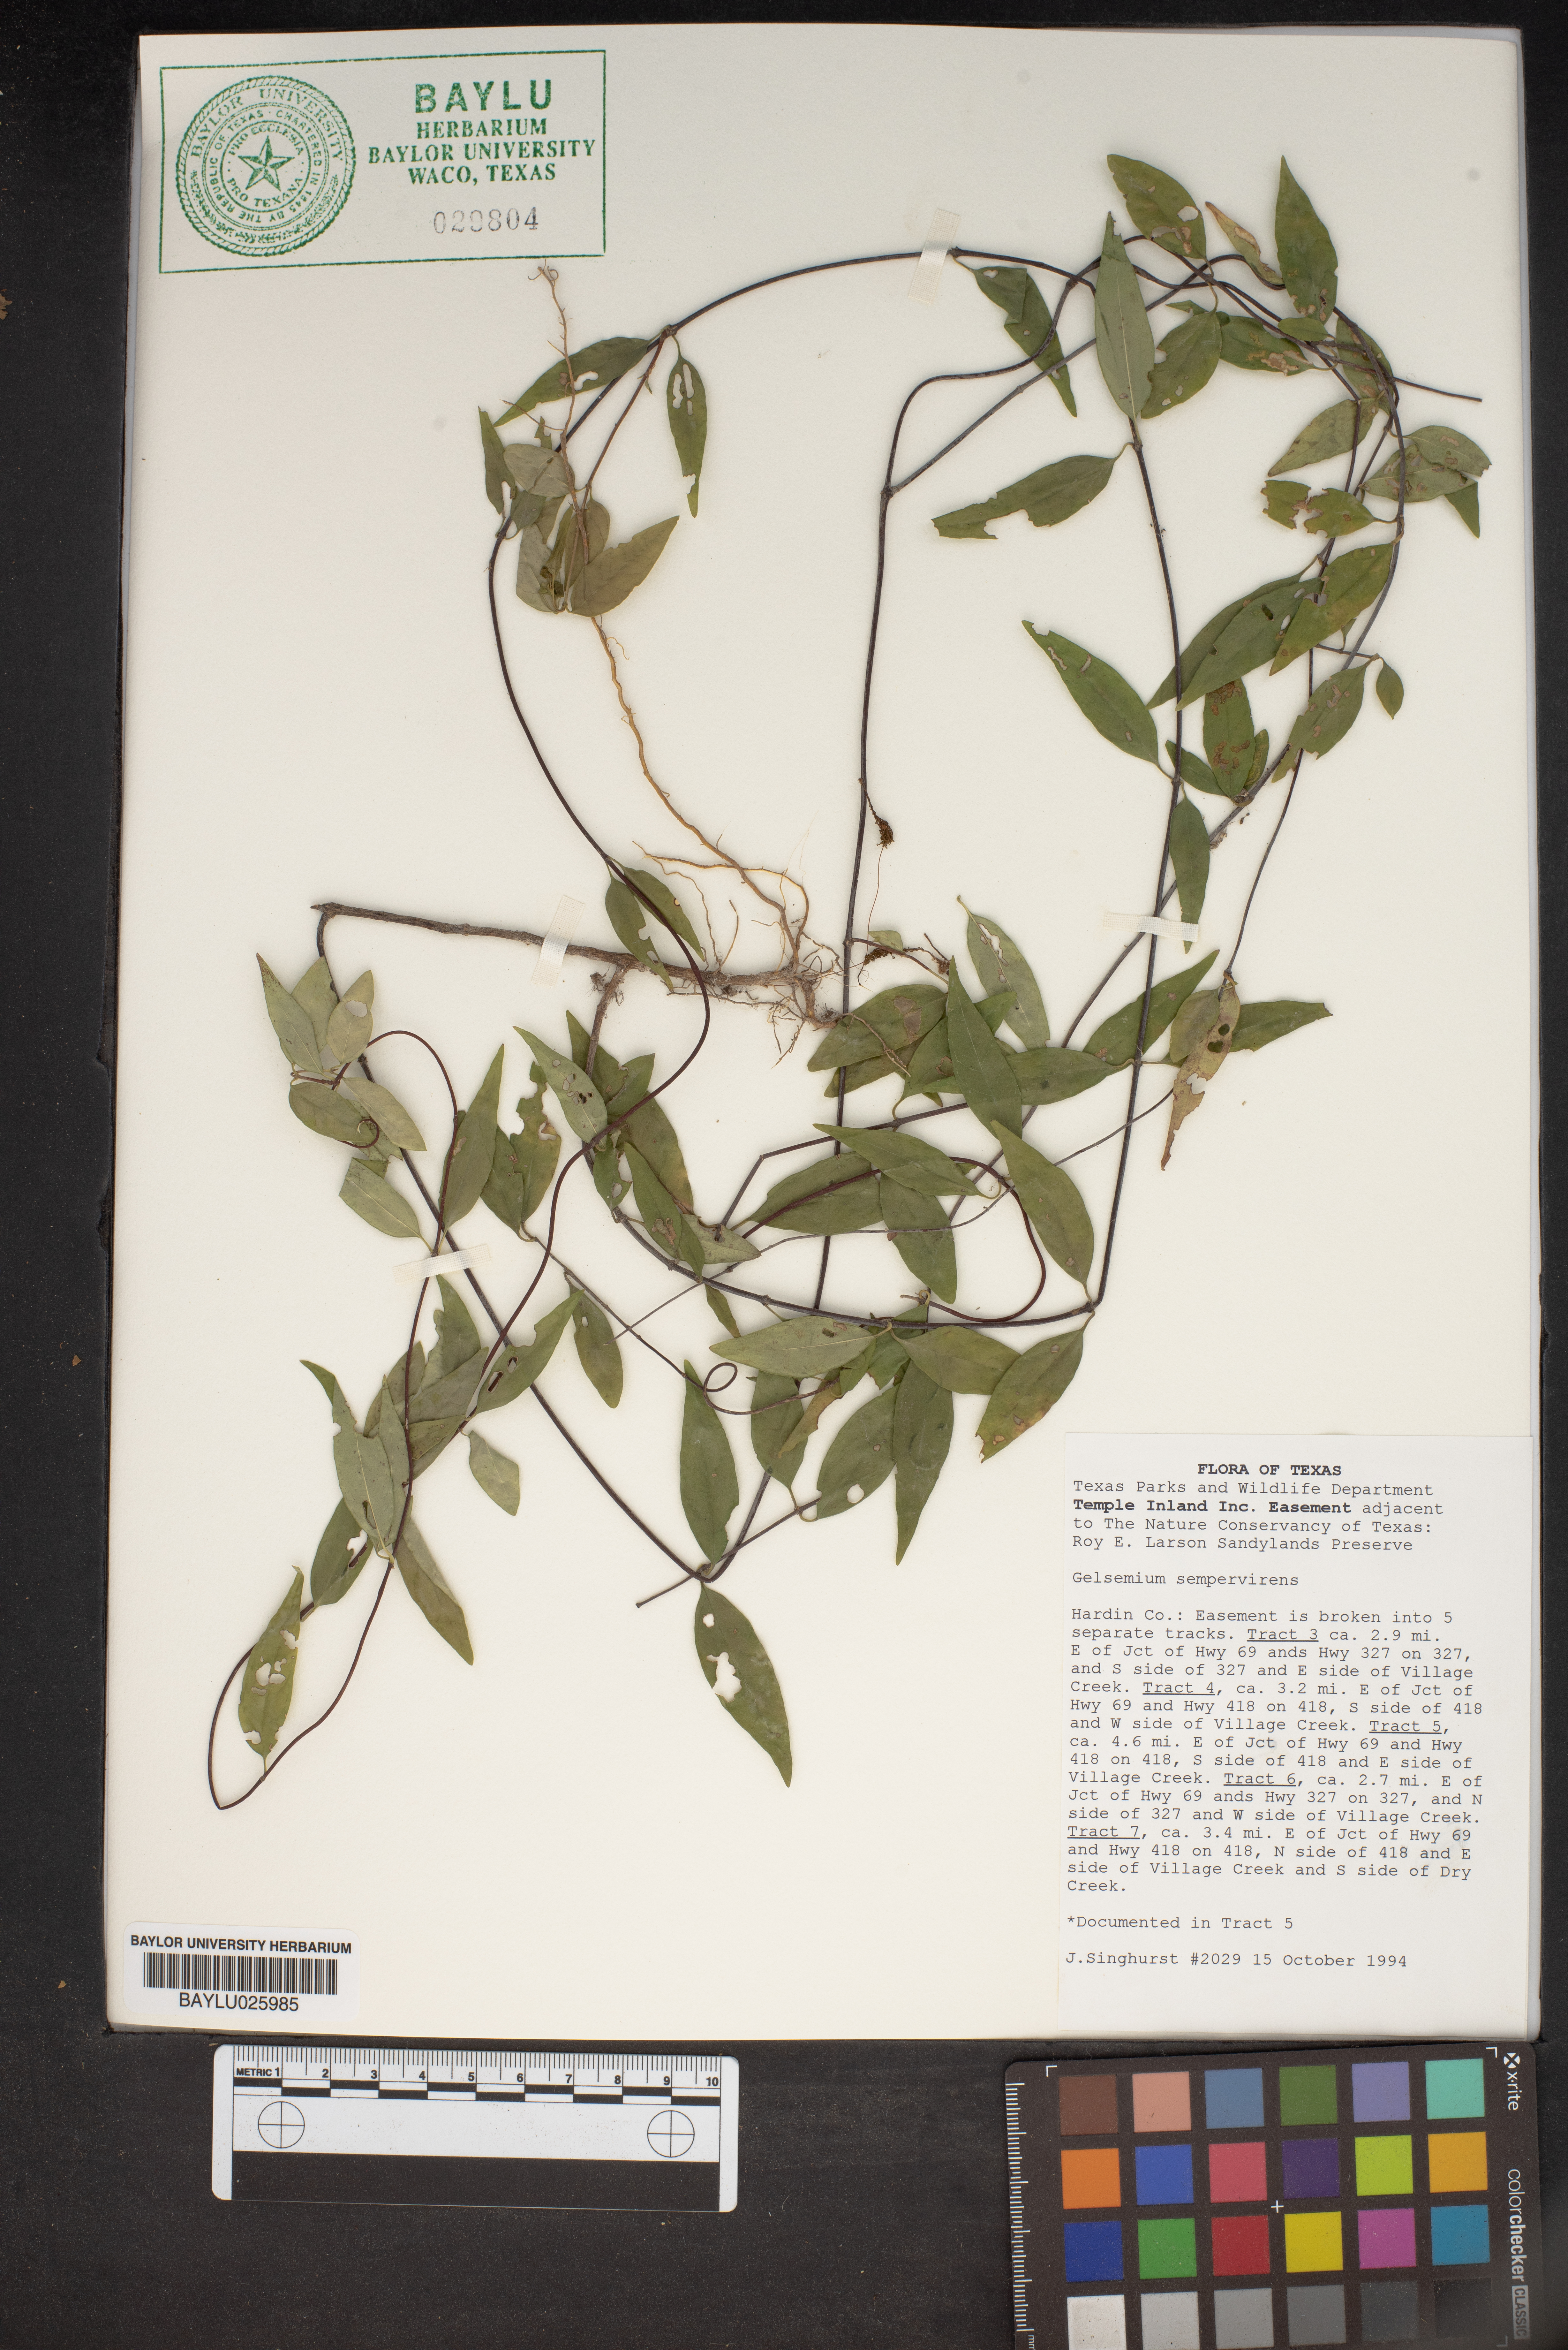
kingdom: Plantae
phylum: Tracheophyta
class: Magnoliopsida
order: Gentianales
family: Gelsemiaceae
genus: Gelsemium
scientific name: Gelsemium sempervirens
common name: Carolina-jasmine
